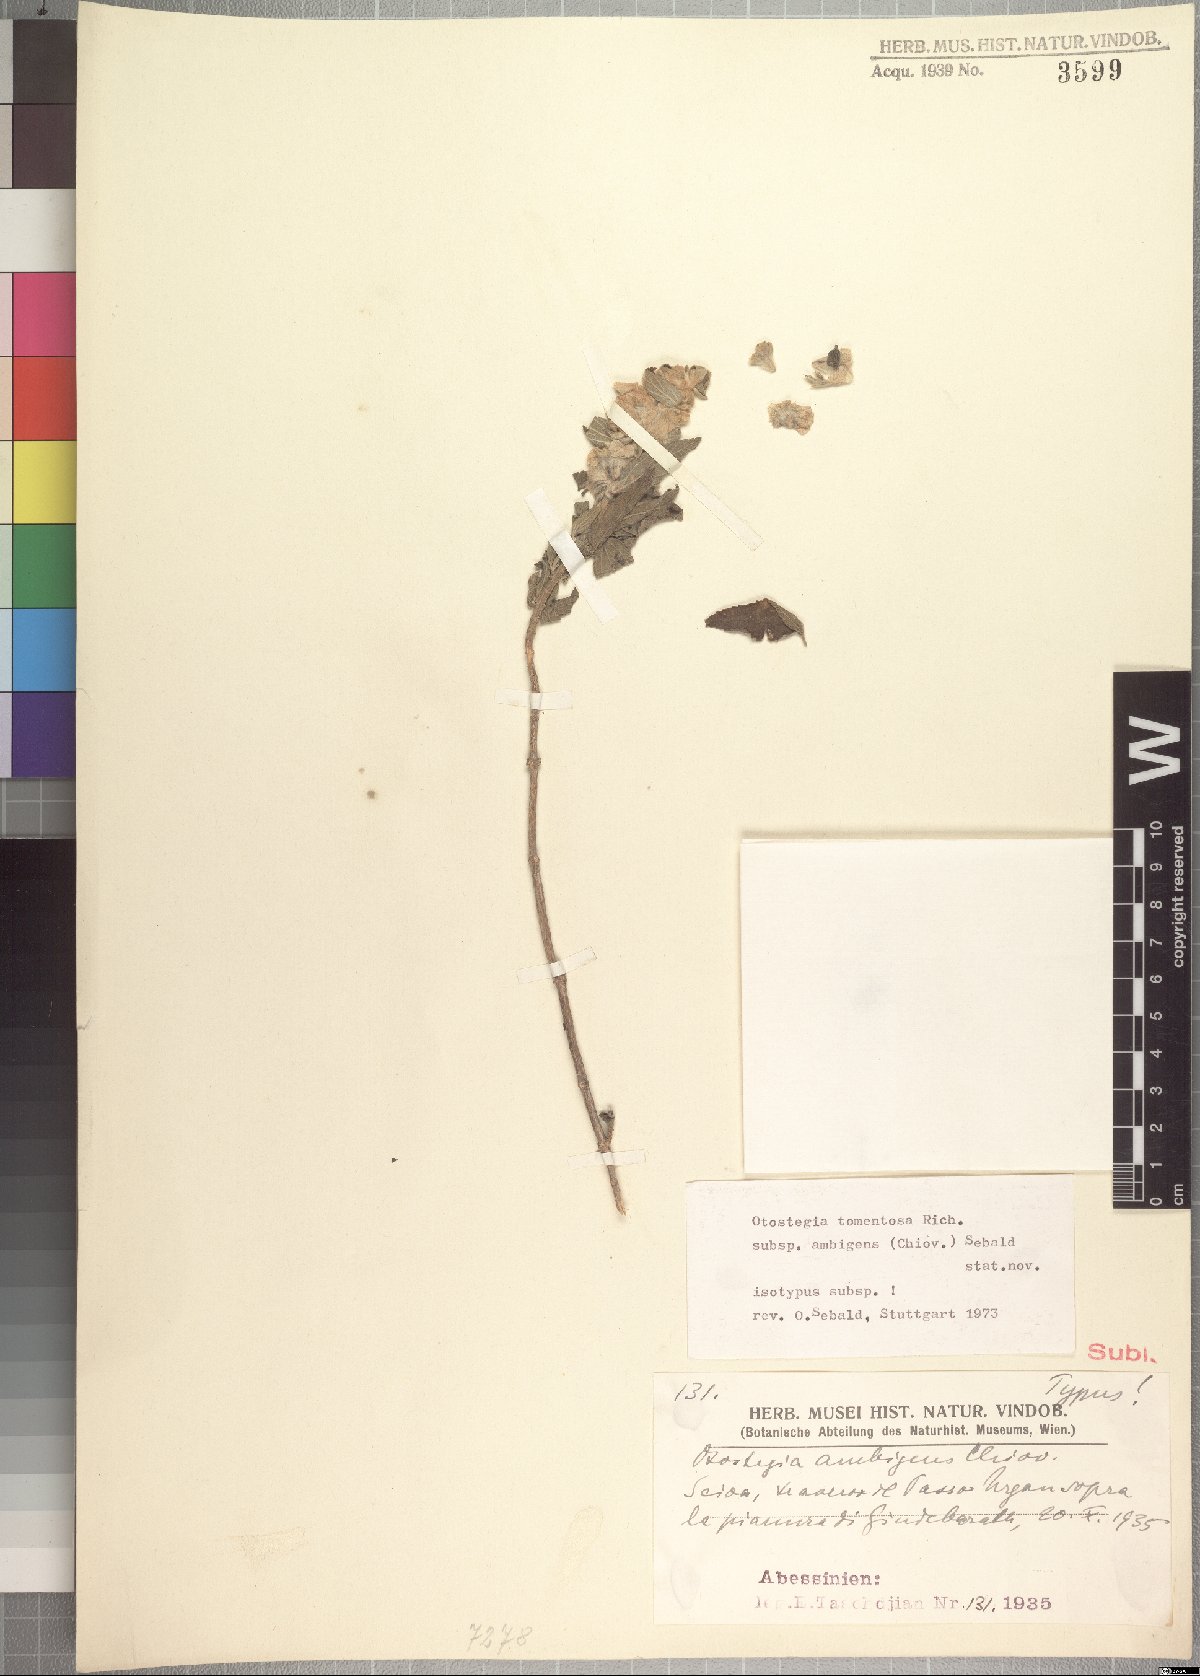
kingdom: Plantae
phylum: Tracheophyta
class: Magnoliopsida
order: Lamiales
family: Lamiaceae
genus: Otostegia
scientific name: Otostegia tomentosa
